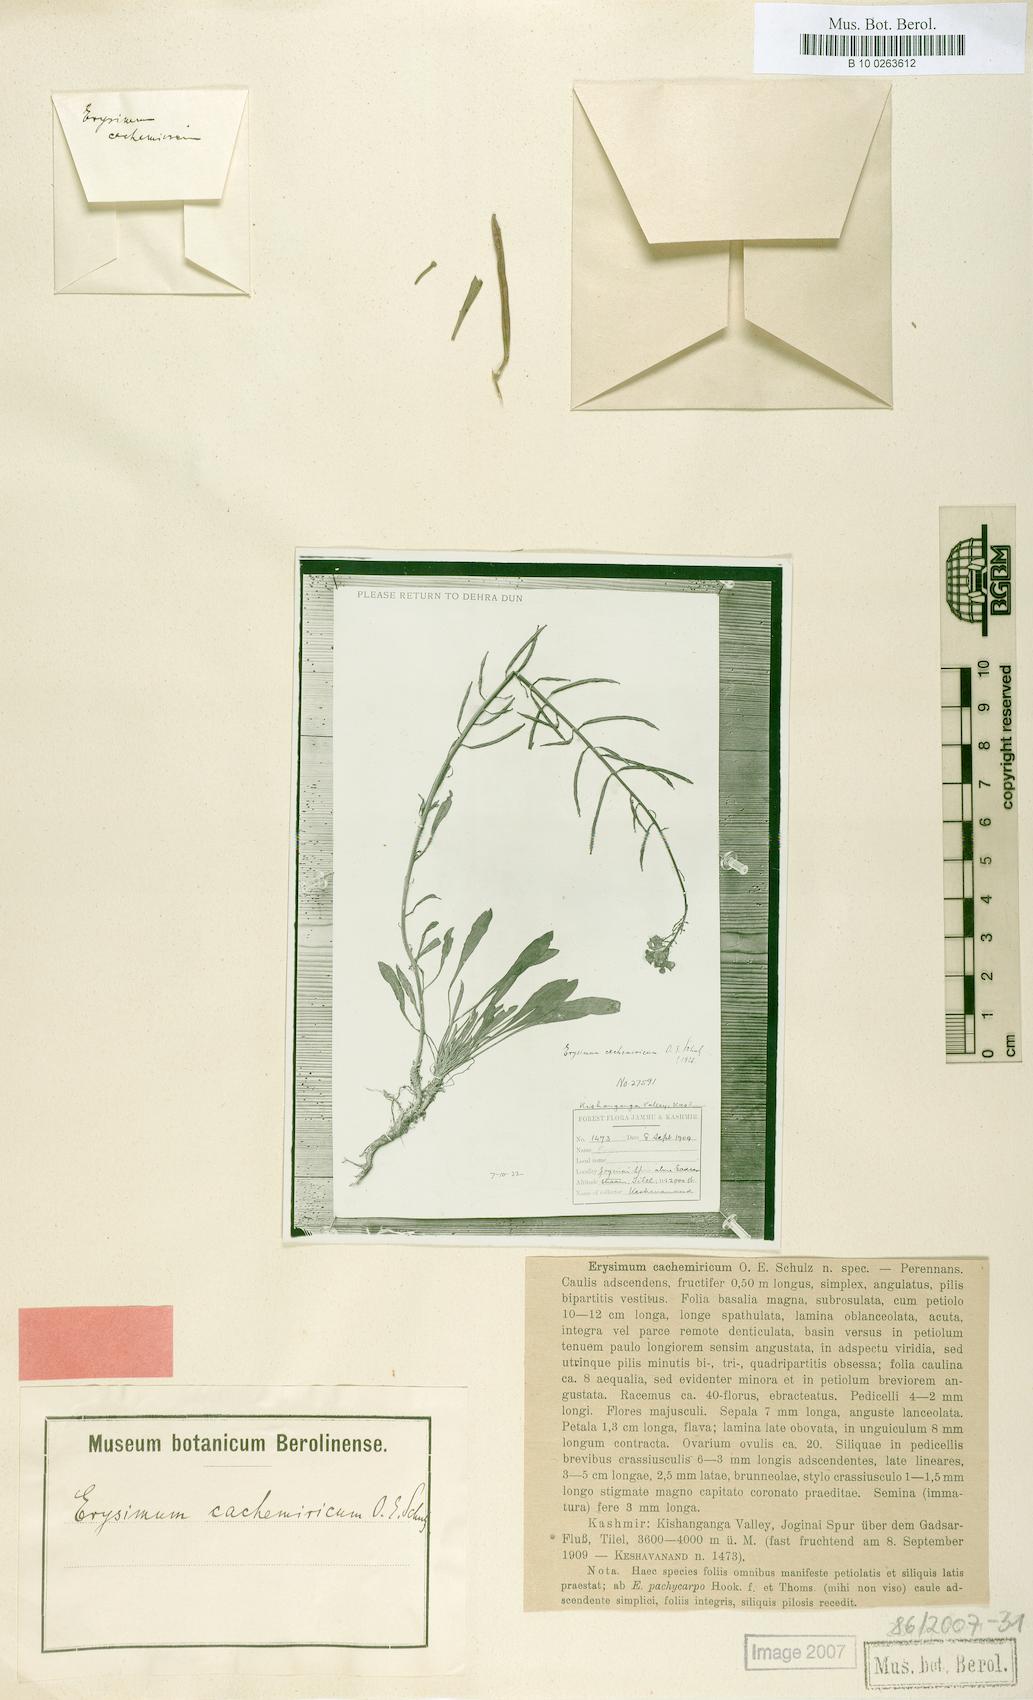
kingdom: Plantae
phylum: Tracheophyta
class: Magnoliopsida
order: Brassicales
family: Brassicaceae
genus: Erysimum
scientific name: Erysimum melicentae
